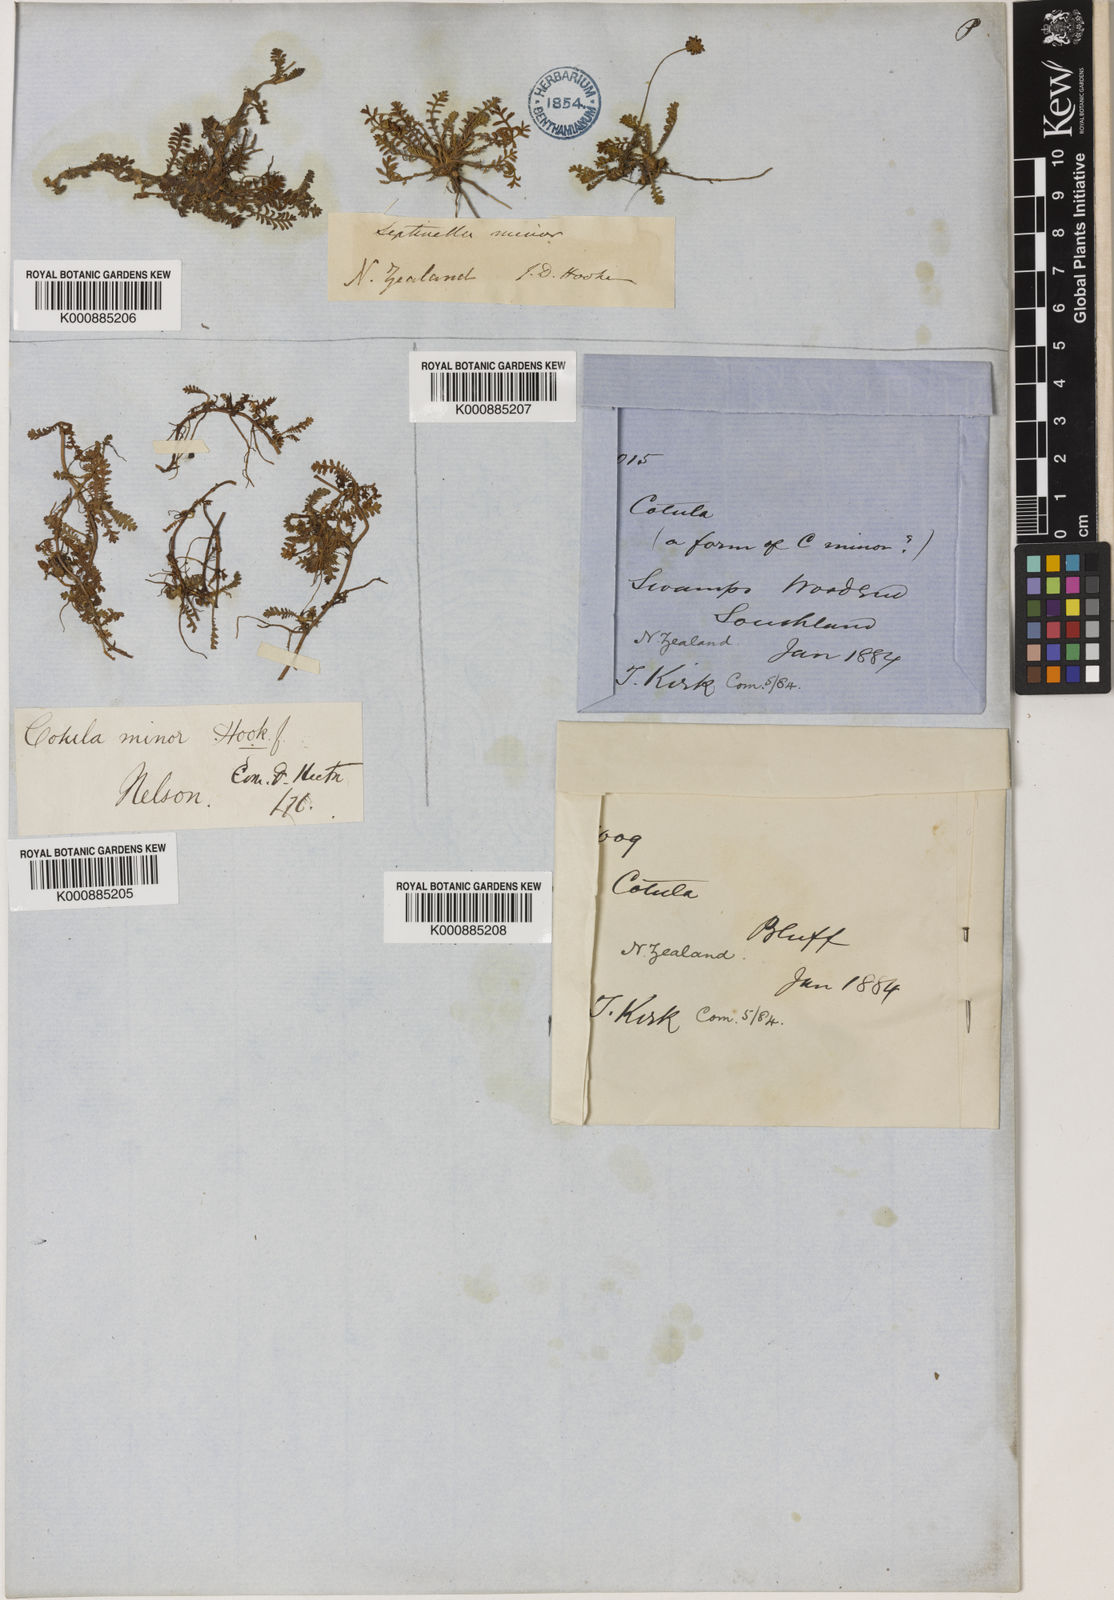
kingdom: Plantae
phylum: Tracheophyta
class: Magnoliopsida
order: Asterales
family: Asteraceae
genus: Leptinella
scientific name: Leptinella minor
